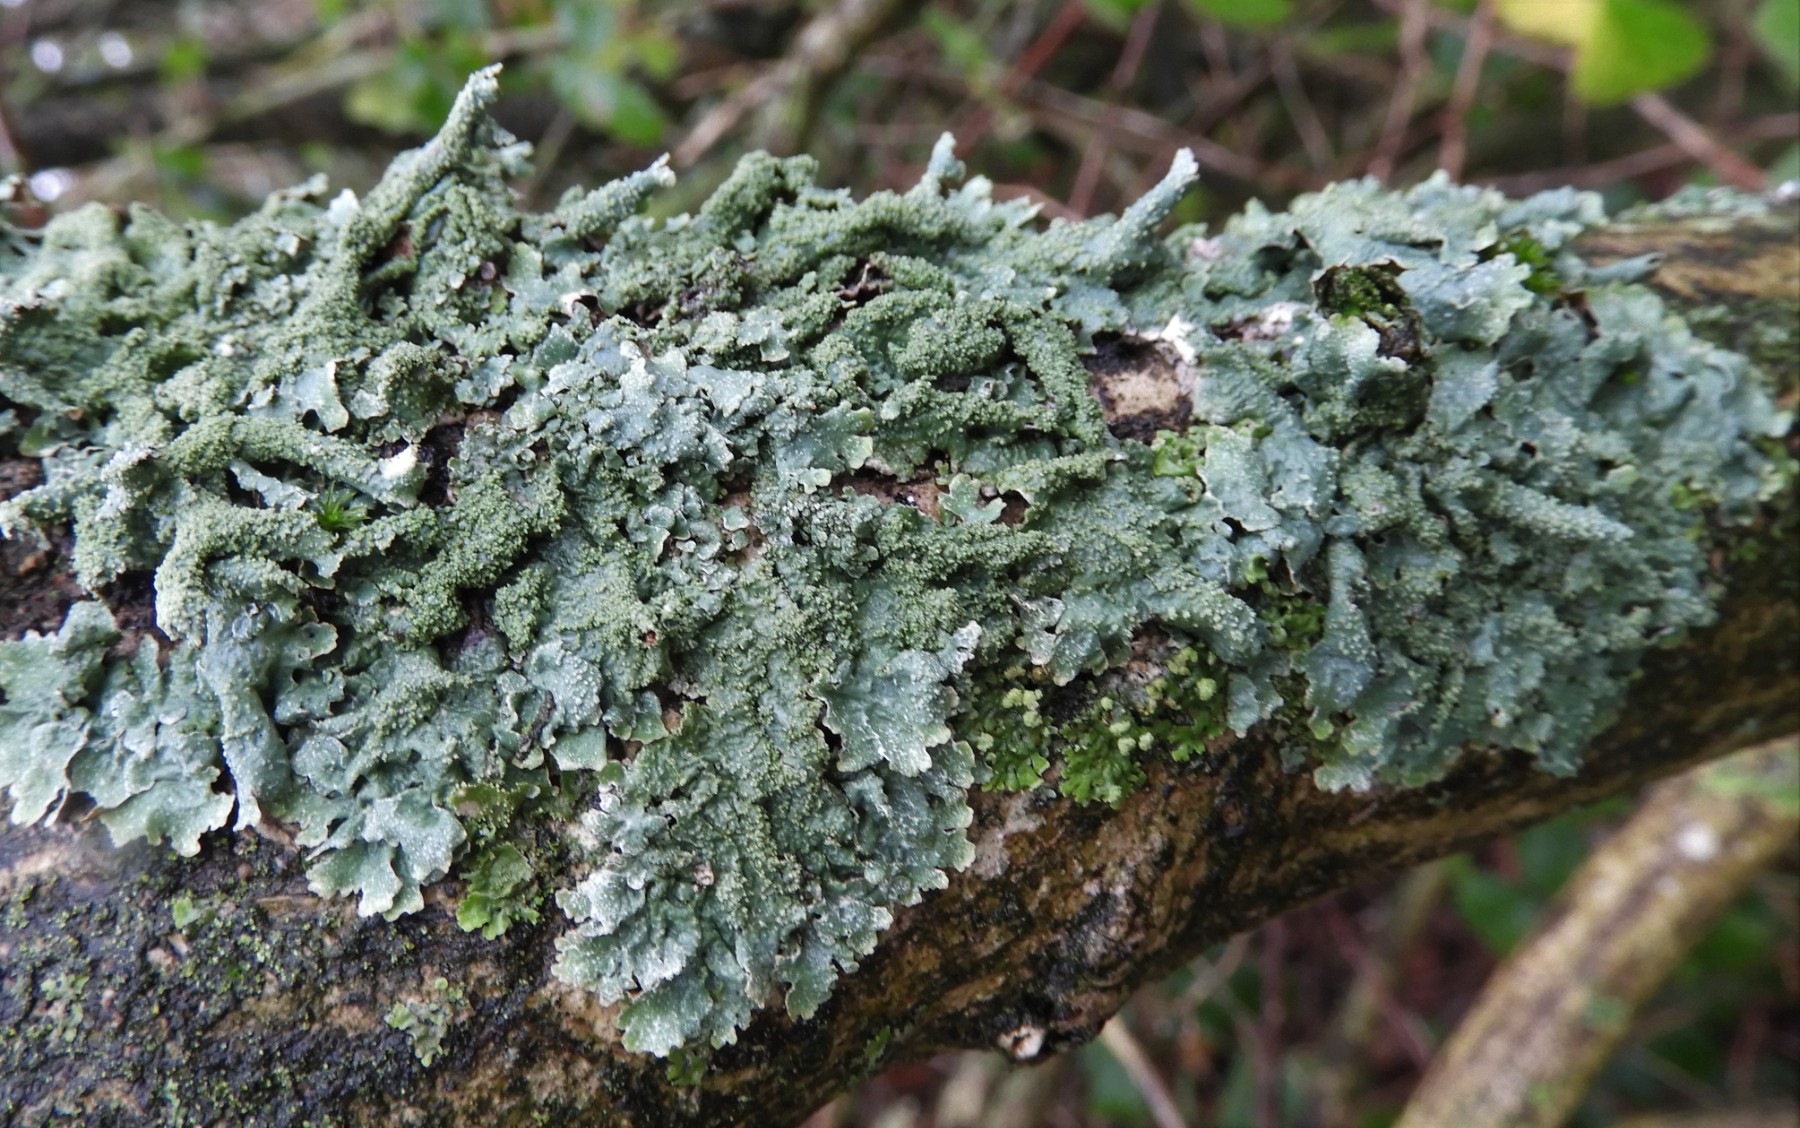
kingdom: Fungi
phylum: Ascomycota
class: Lecanoromycetes
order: Lecanorales
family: Parmeliaceae
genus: Parmelia
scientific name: Parmelia submontana
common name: langlobet skållav
